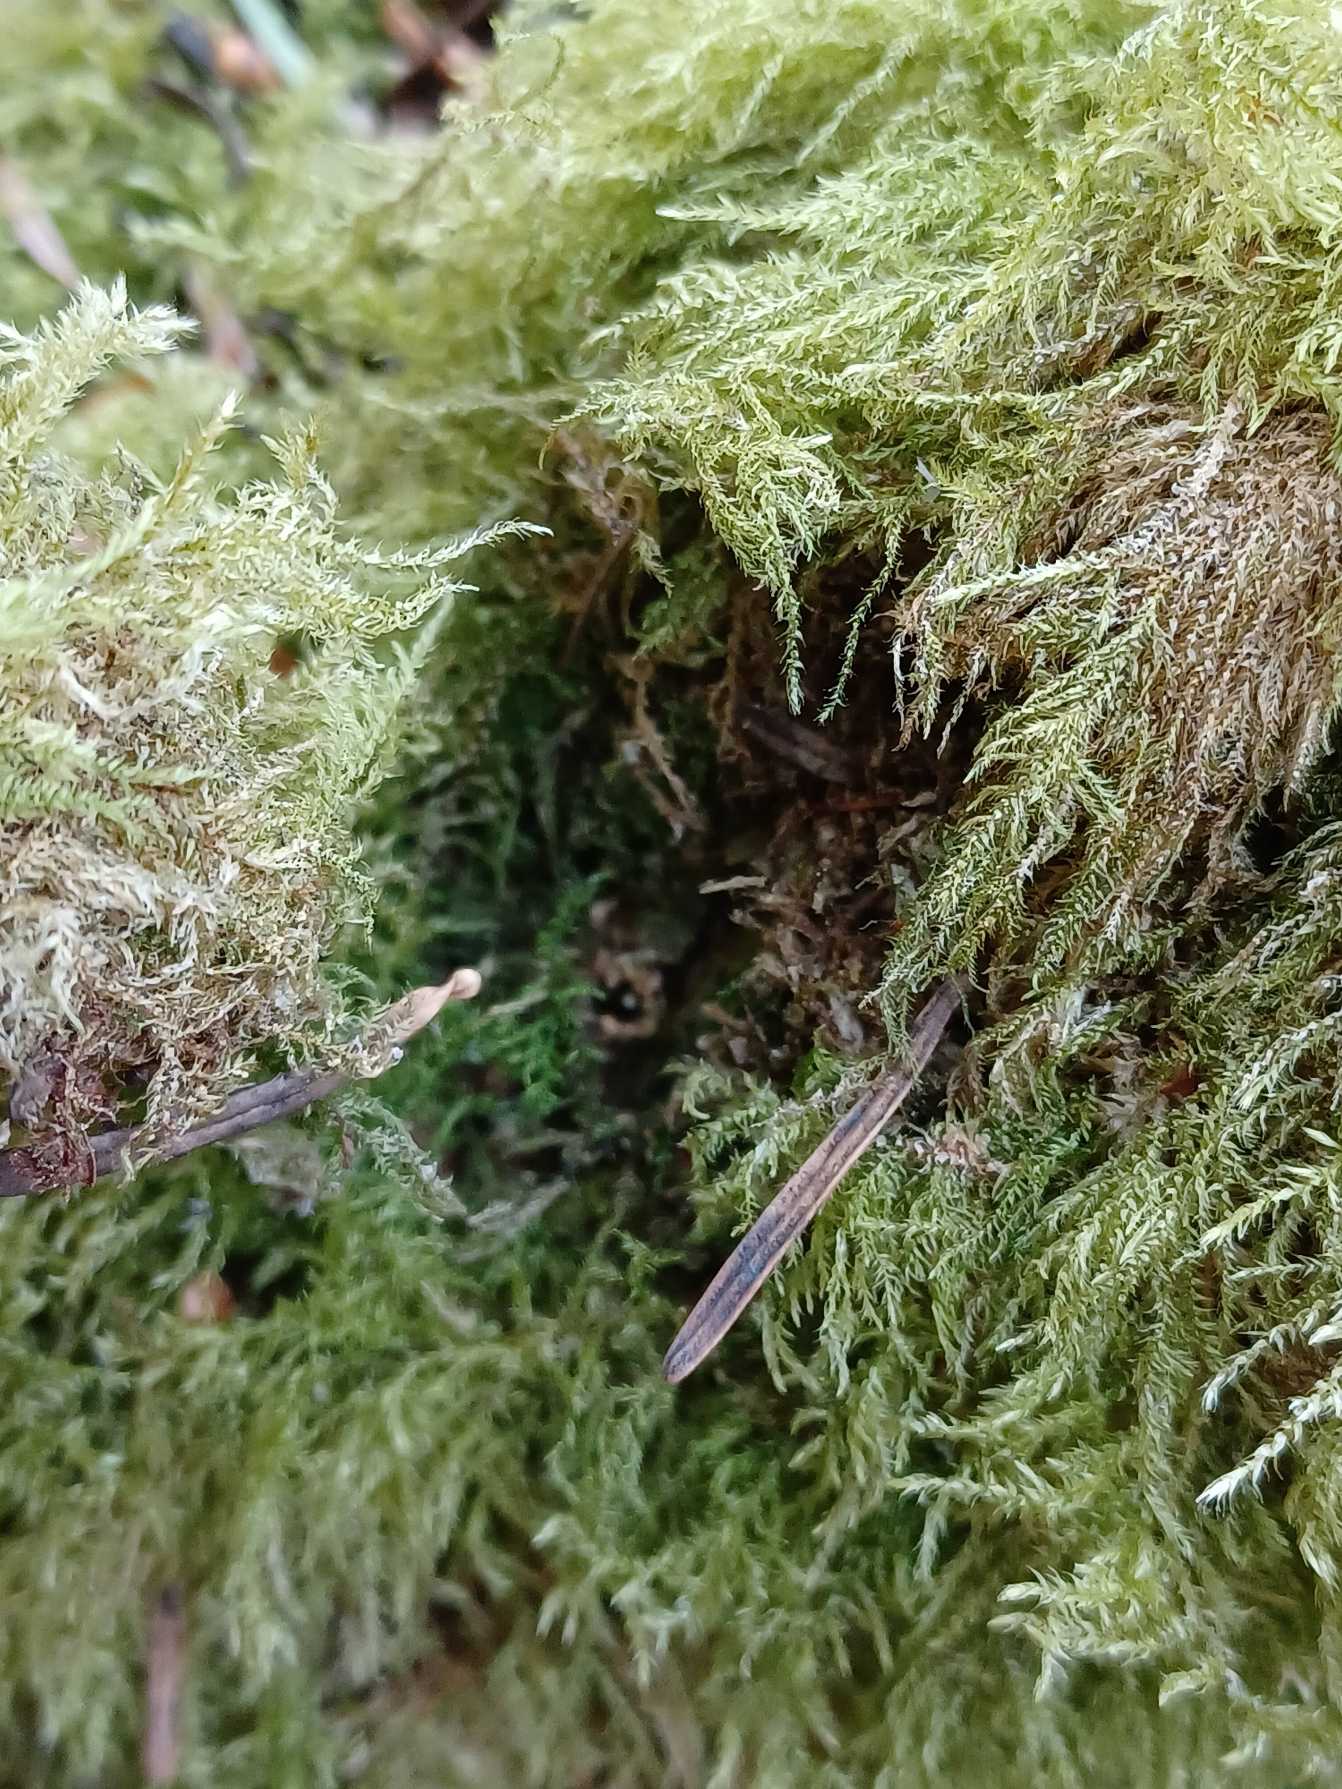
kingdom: Plantae
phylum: Bryophyta
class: Bryopsida
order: Hypnales
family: Brachytheciaceae
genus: Kindbergia
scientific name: Kindbergia praelonga
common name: Forskelligbladet vortetand
